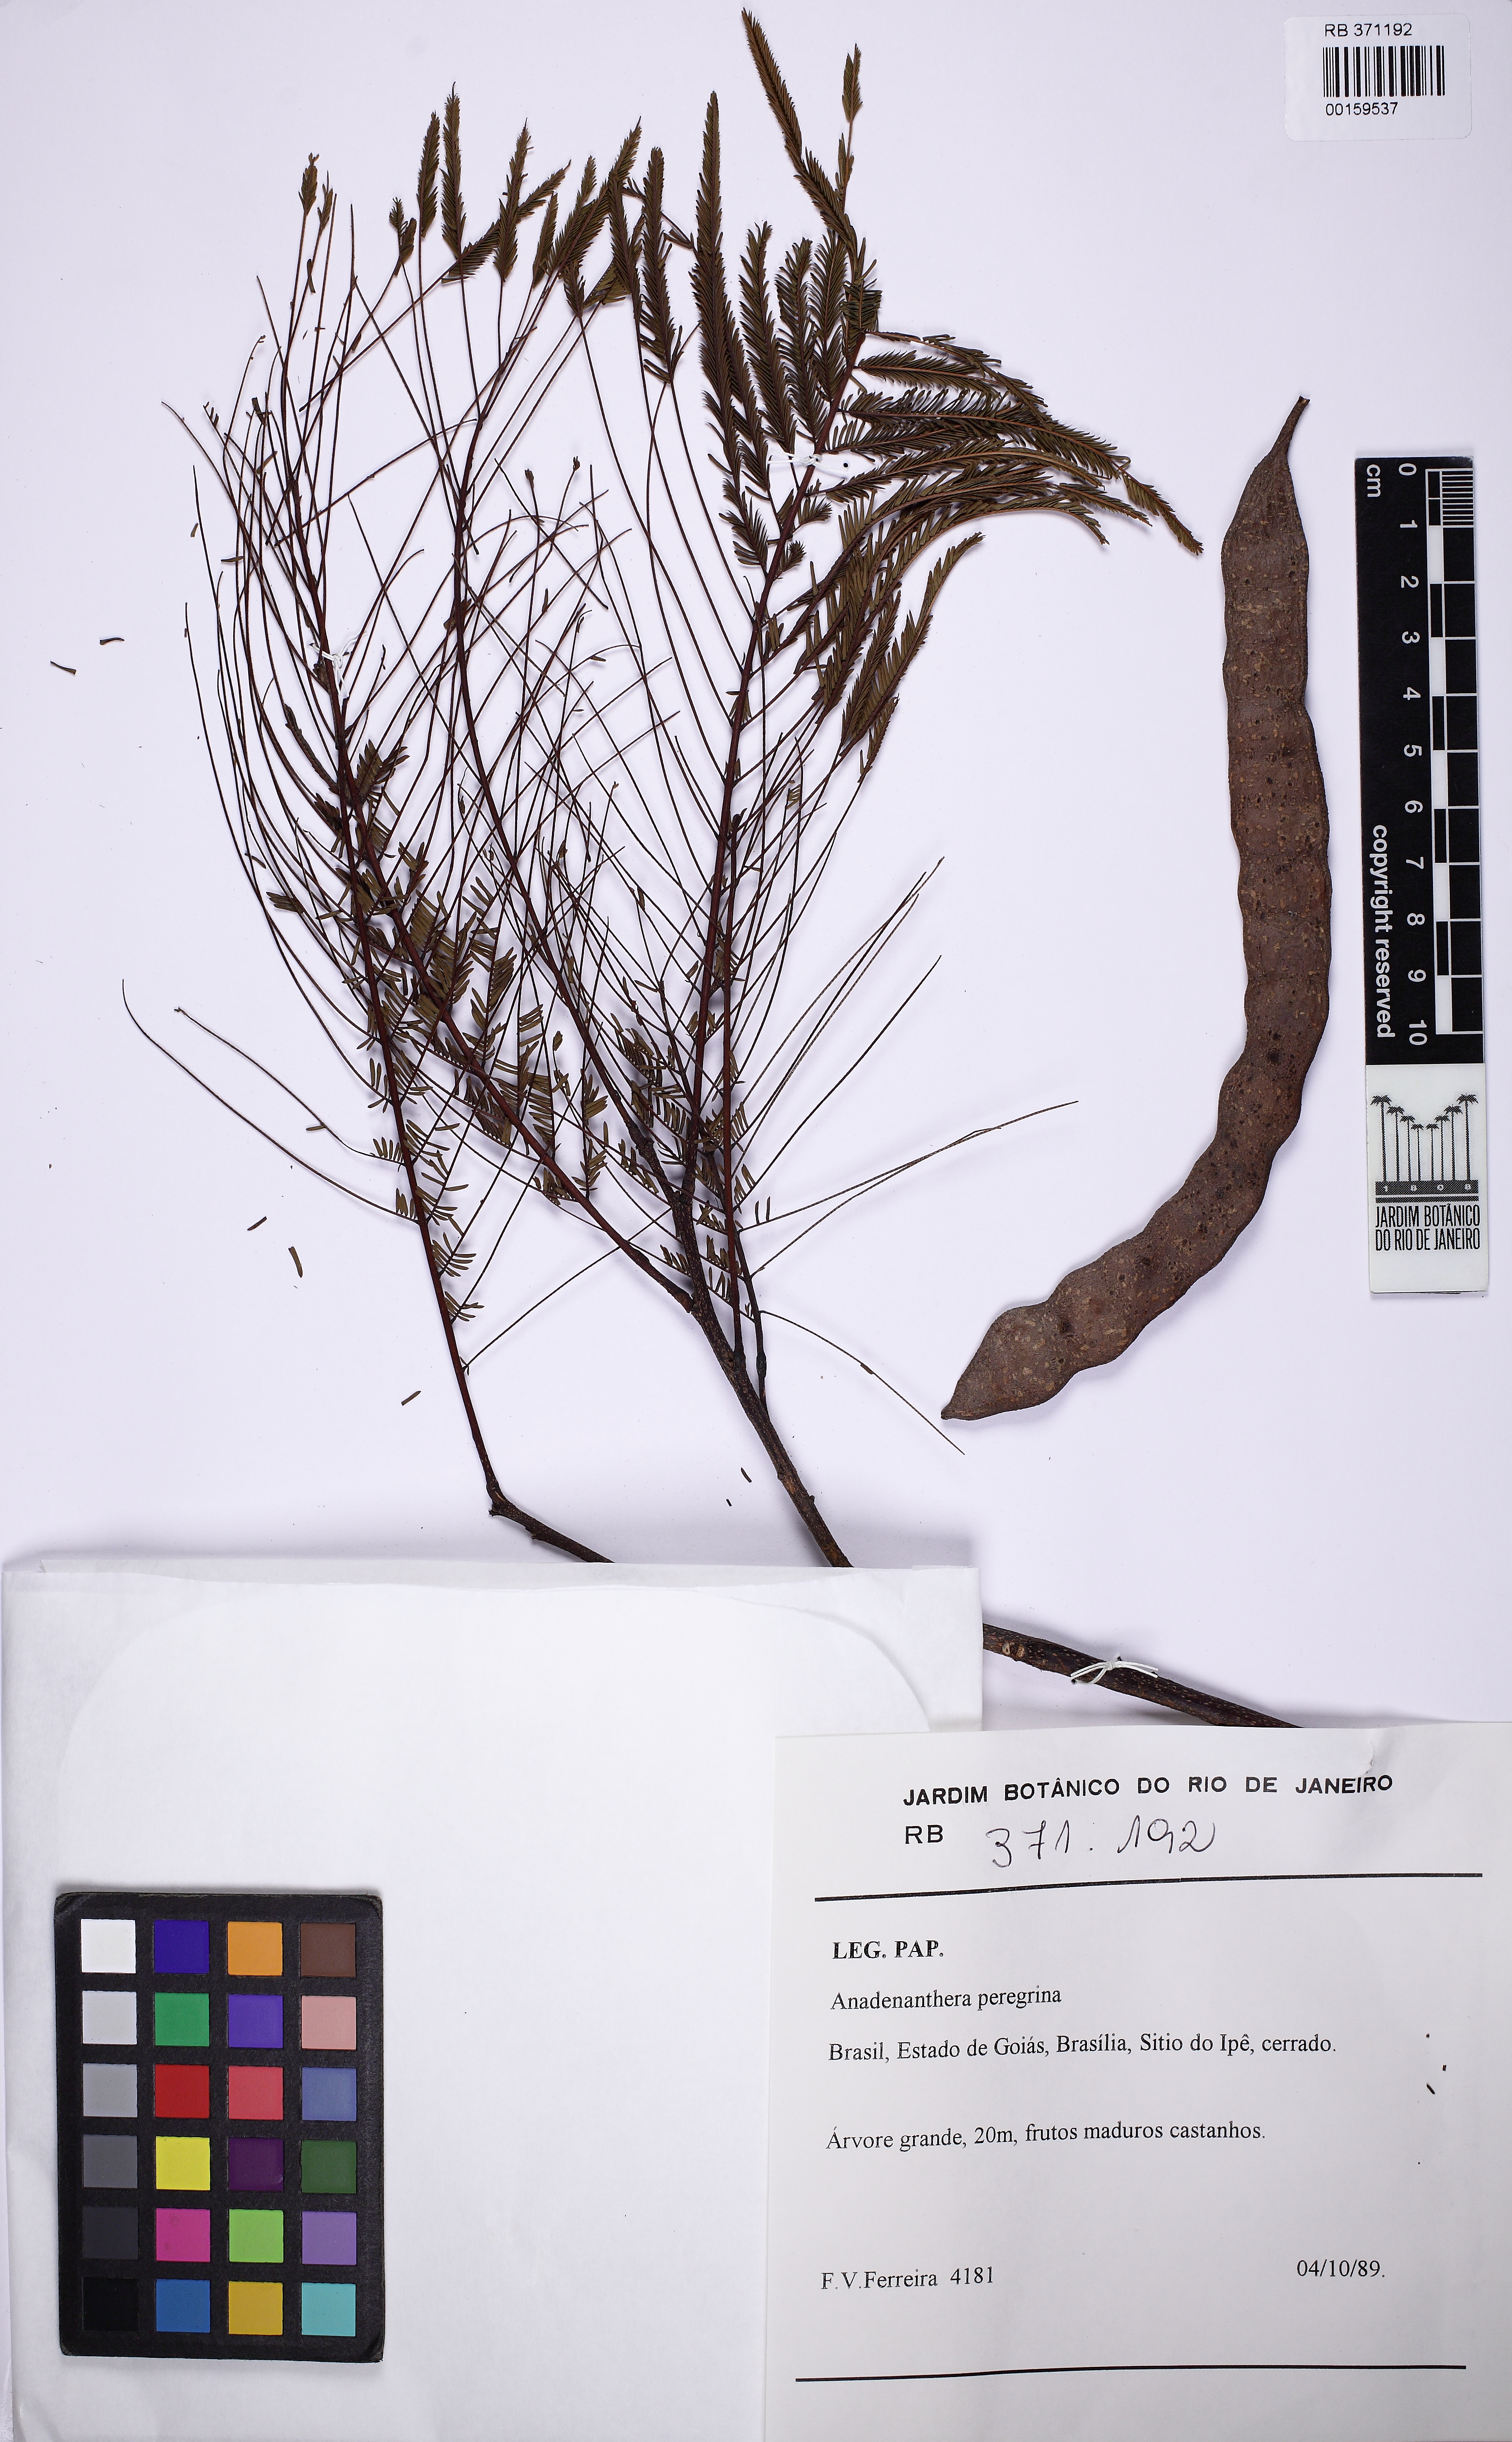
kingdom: Plantae
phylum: Tracheophyta
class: Magnoliopsida
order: Fabales
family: Fabaceae
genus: Anadenanthera
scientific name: Anadenanthera peregrina
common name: Cohoba
